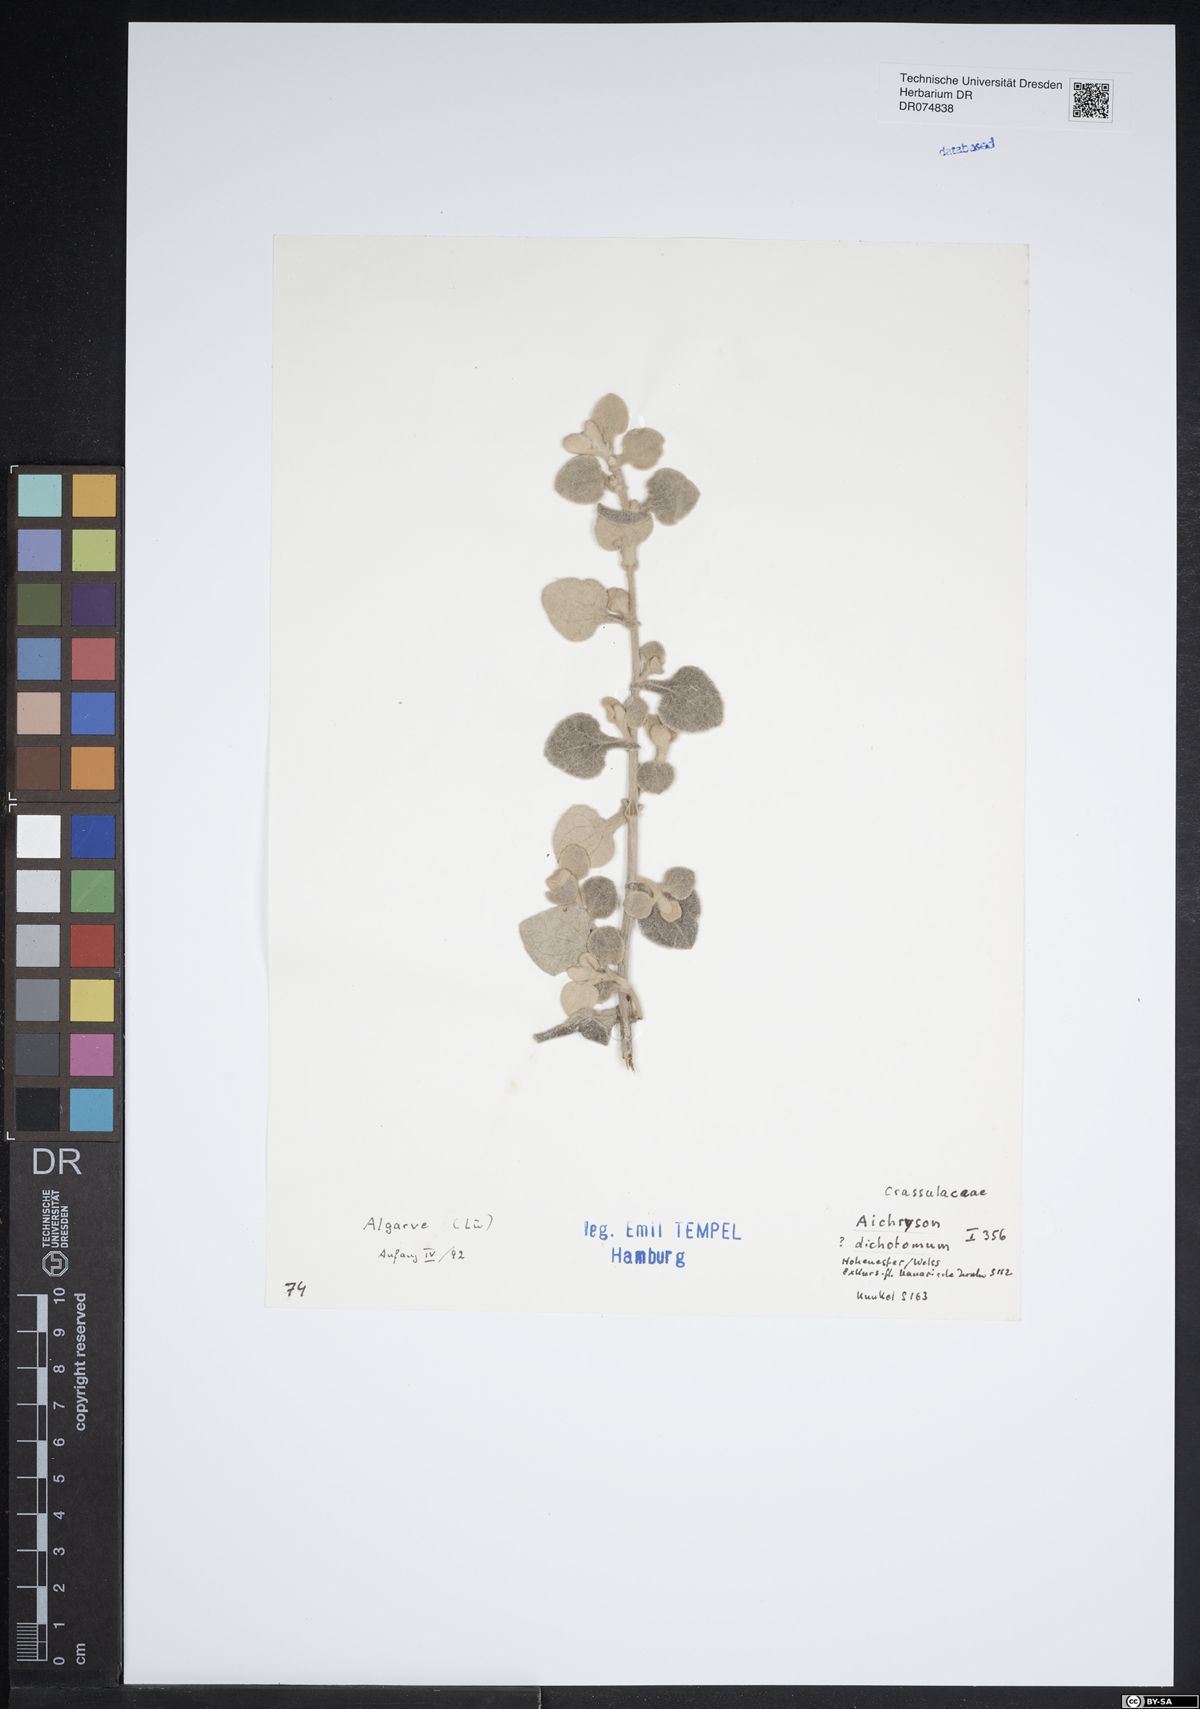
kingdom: Plantae
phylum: Tracheophyta
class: Magnoliopsida
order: Saxifragales
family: Crassulaceae
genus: Aichryson
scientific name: Aichryson laxum
